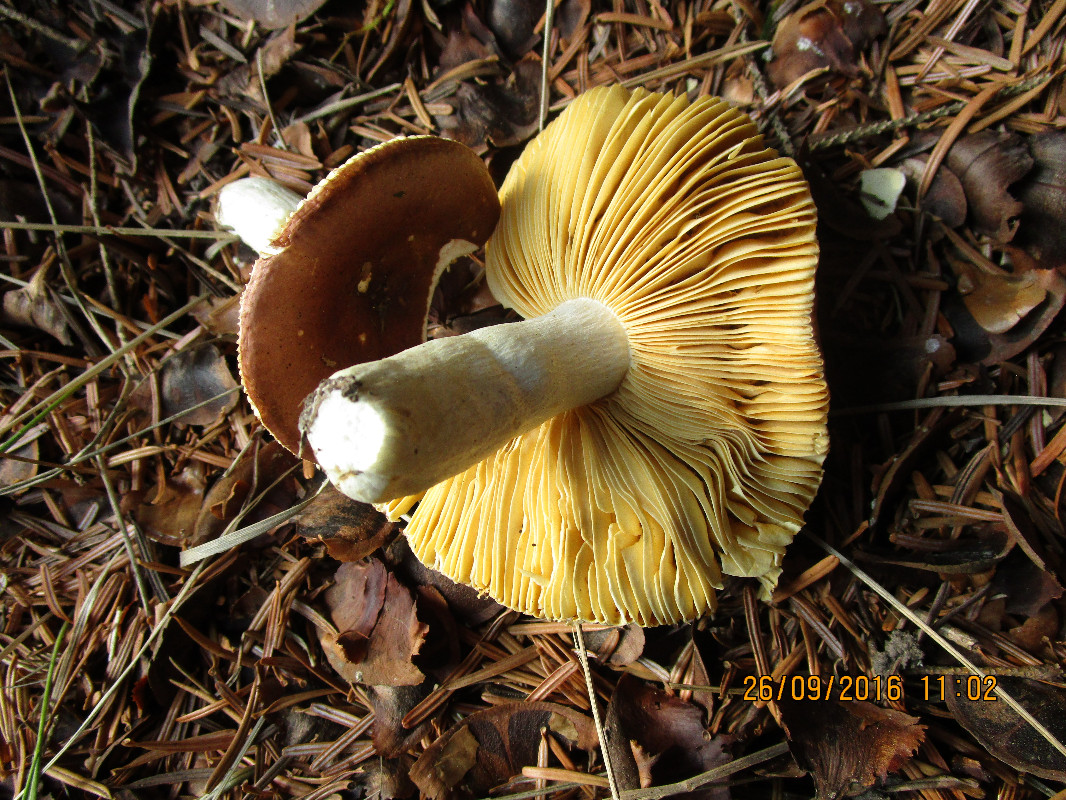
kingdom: Fungi
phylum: Basidiomycota
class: Agaricomycetes
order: Russulales
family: Russulaceae
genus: Russula
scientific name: Russula integra
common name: mandel-skørhat
